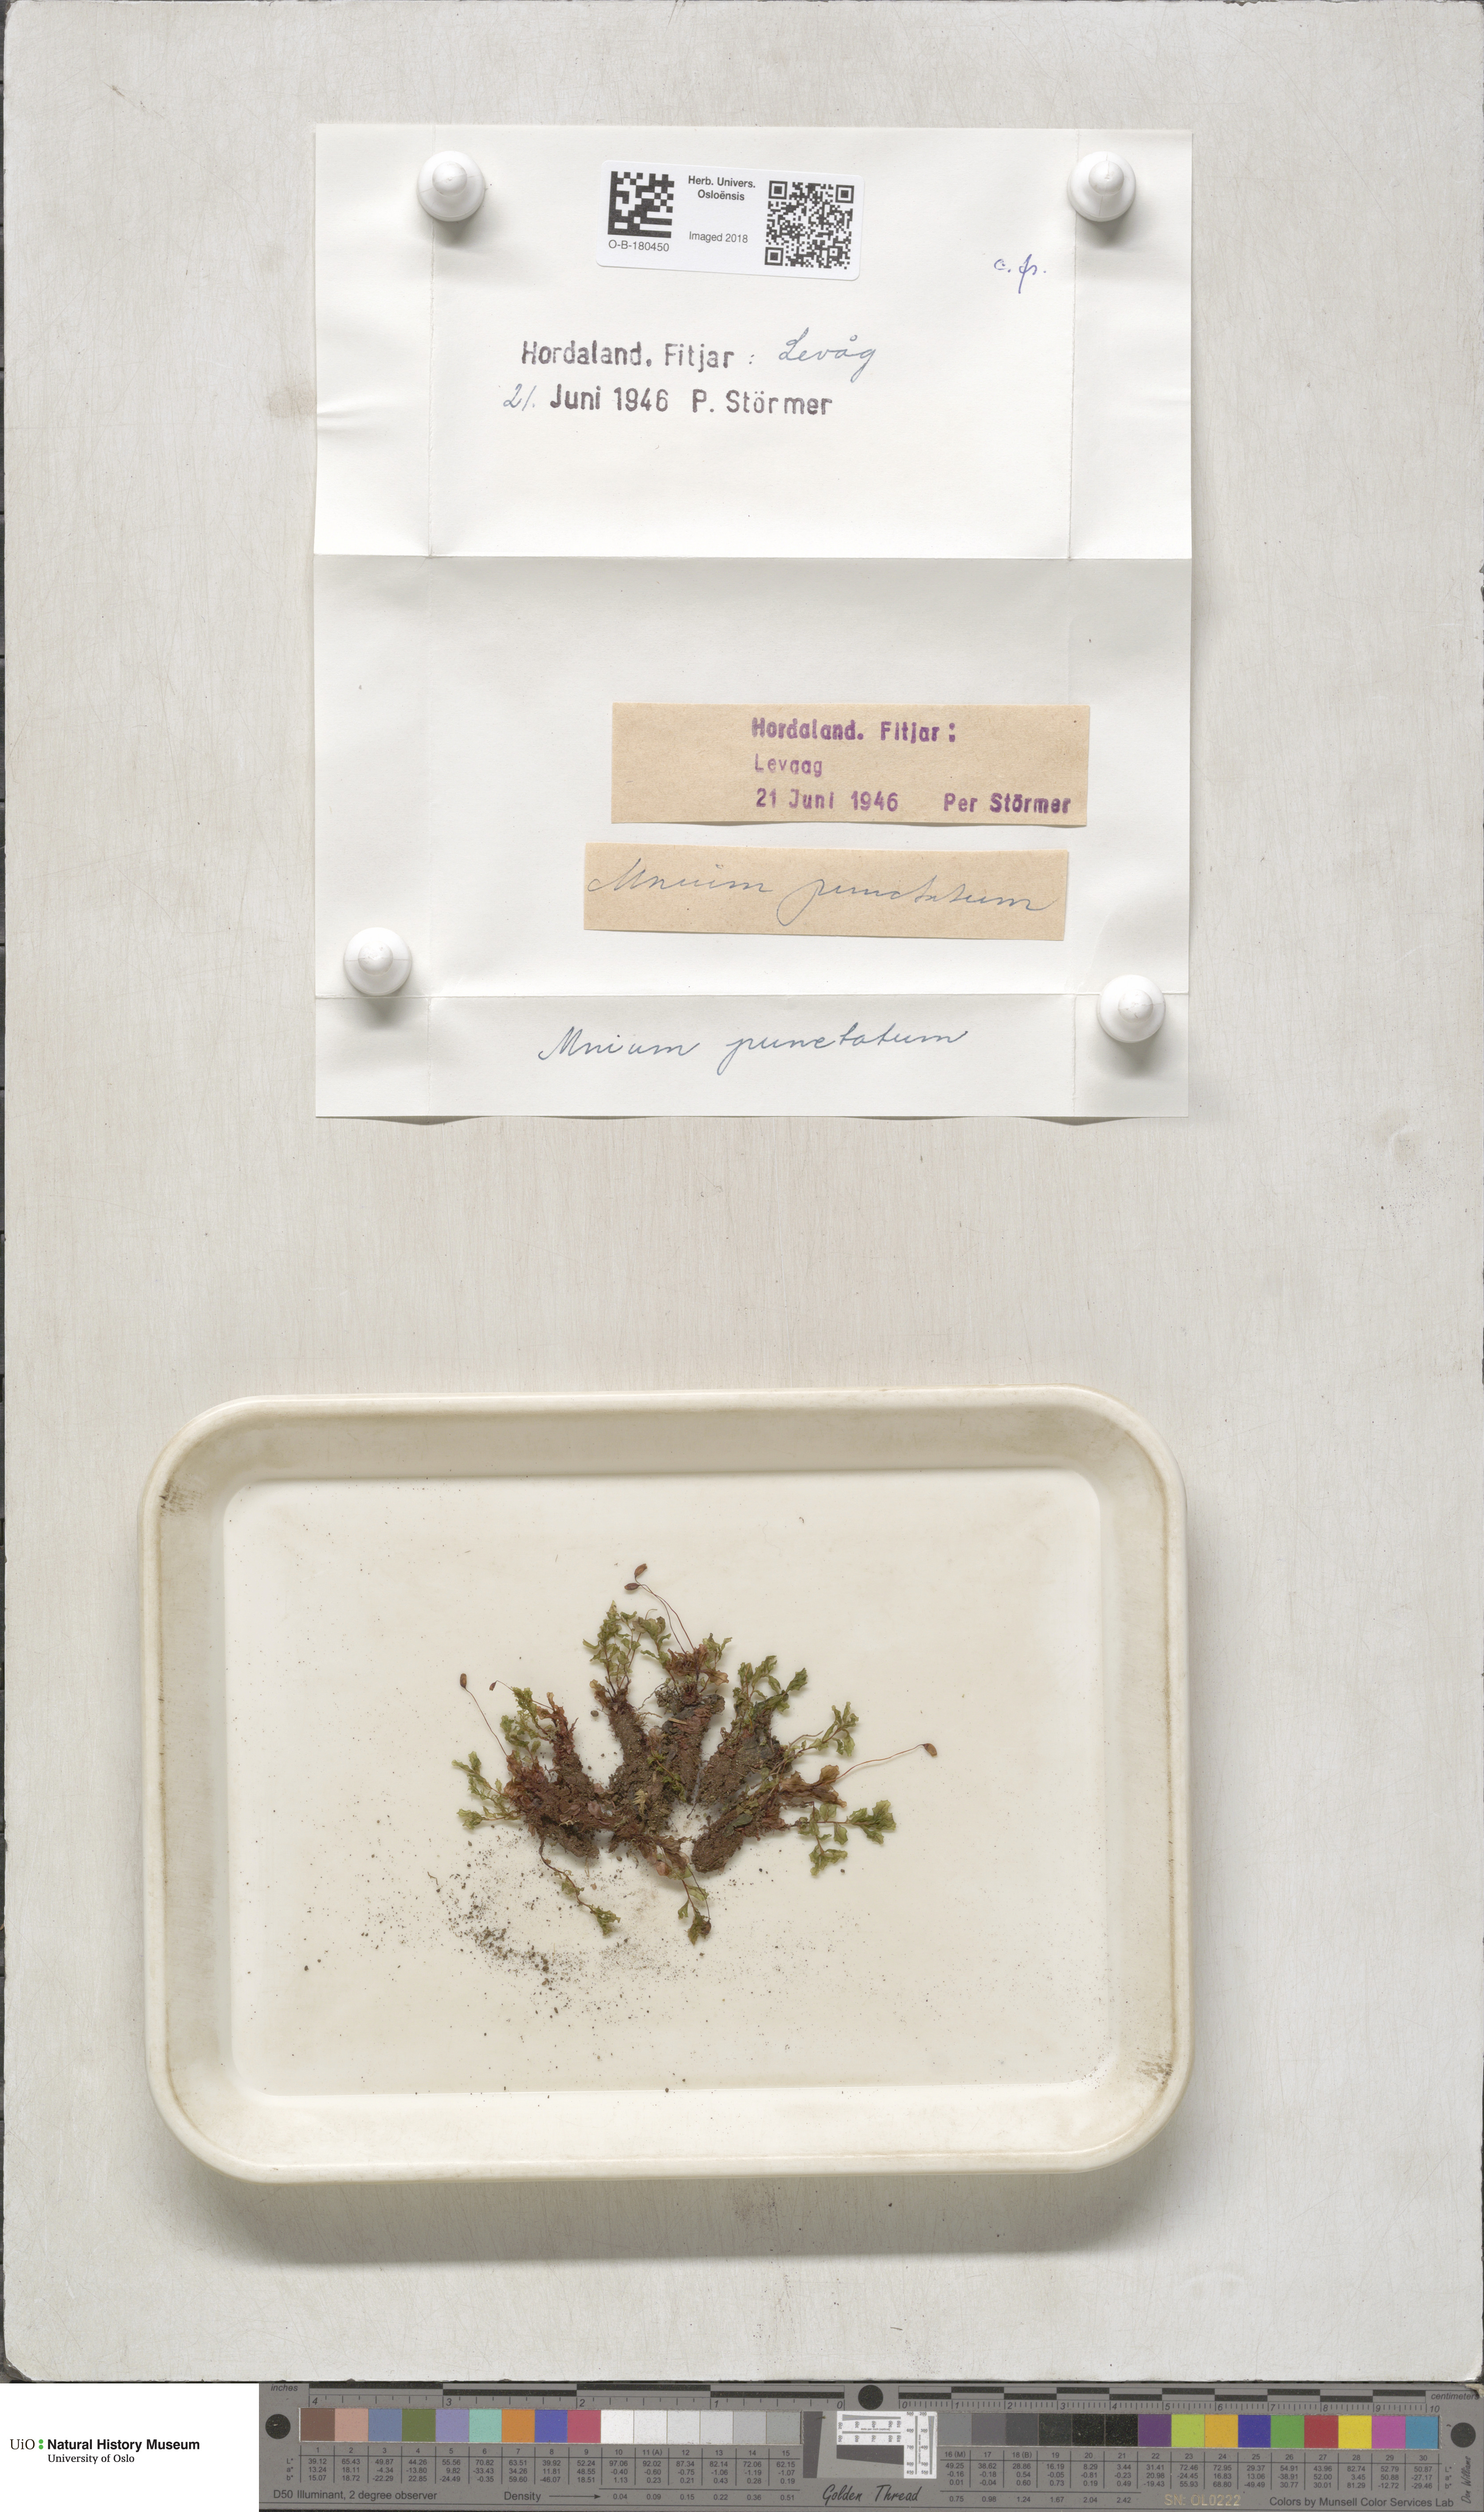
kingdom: Plantae
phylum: Bryophyta
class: Bryopsida
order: Bryales
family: Mniaceae
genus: Rhizomnium
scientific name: Rhizomnium punctatum
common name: Dotted leafy moss
